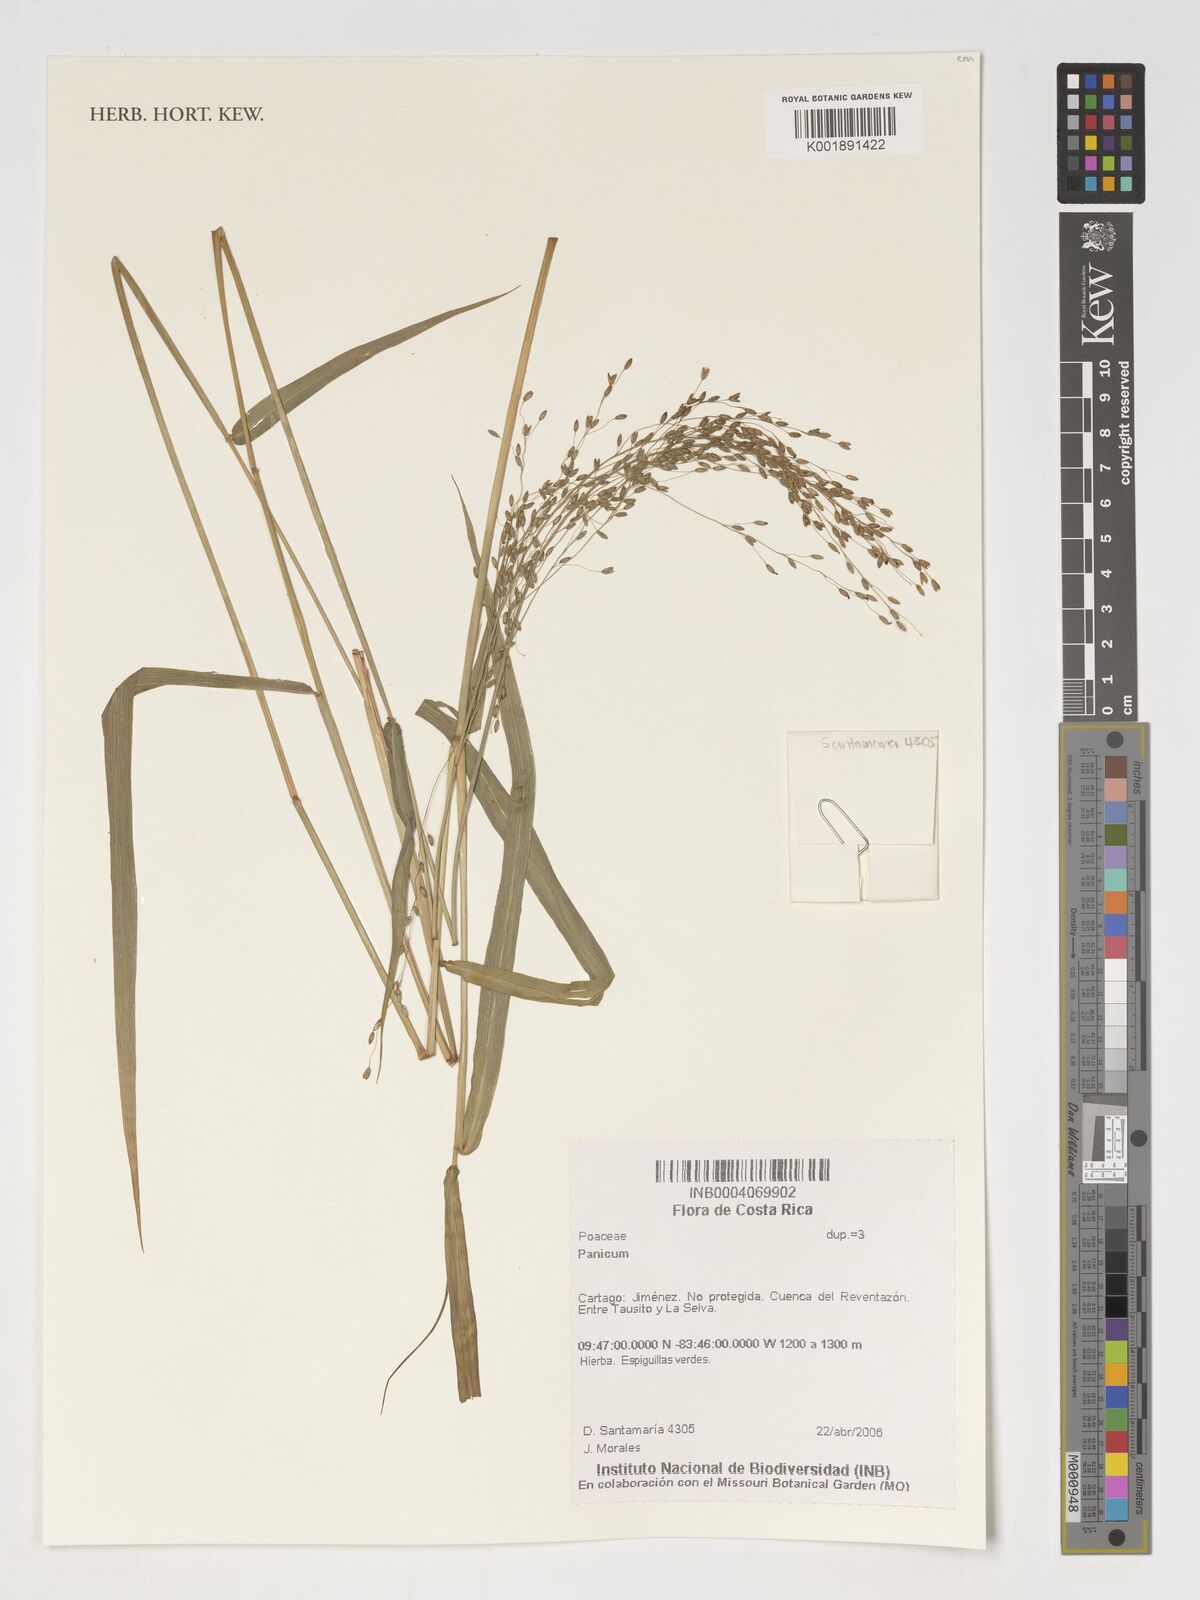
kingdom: Plantae
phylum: Tracheophyta
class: Liliopsida
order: Poales
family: Poaceae
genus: Panicum
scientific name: Panicum
